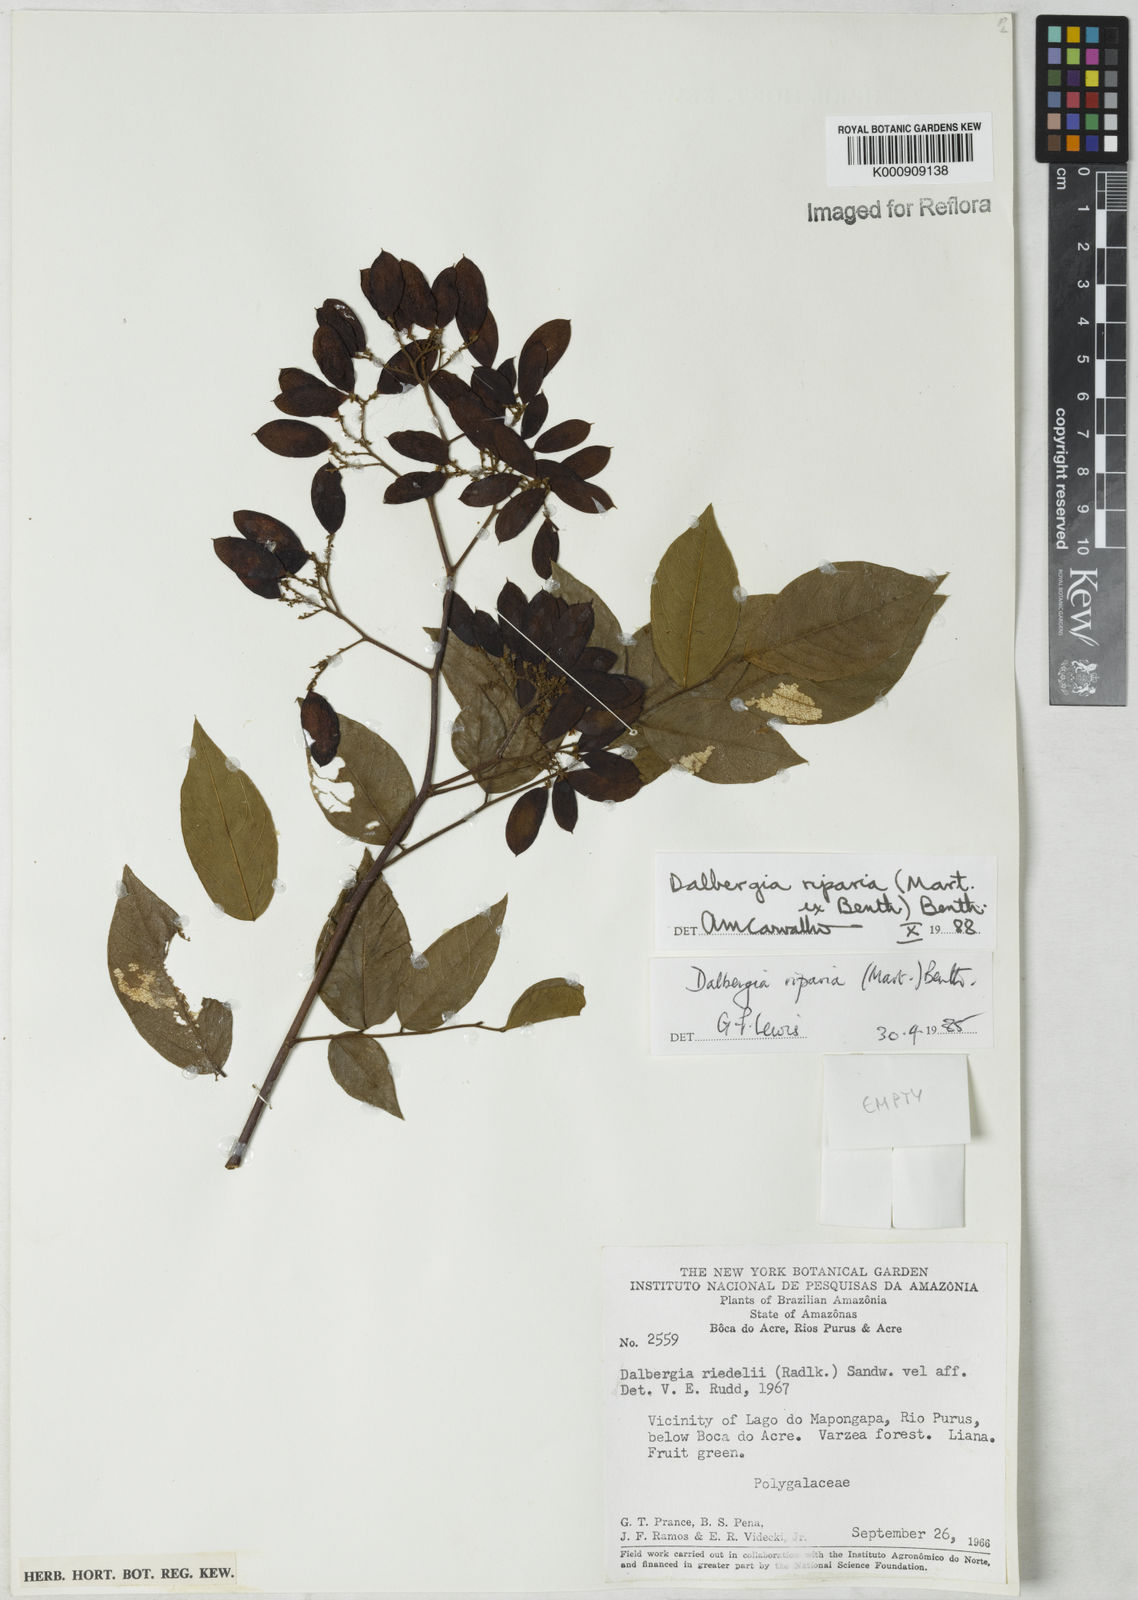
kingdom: Plantae
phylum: Tracheophyta
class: Magnoliopsida
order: Fabales
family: Fabaceae
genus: Dalbergia
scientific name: Dalbergia riparia
